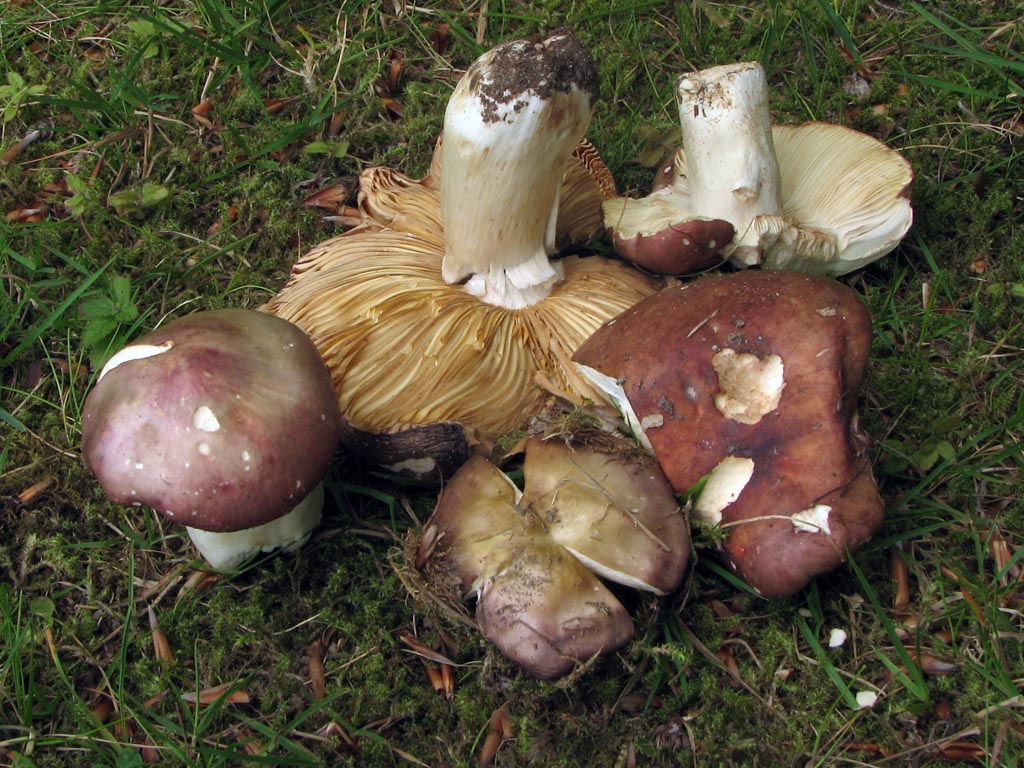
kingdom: Fungi
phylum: Basidiomycota
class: Agaricomycetes
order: Russulales
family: Russulaceae
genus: Russula
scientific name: Russula faginea
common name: bøge-skørhat
